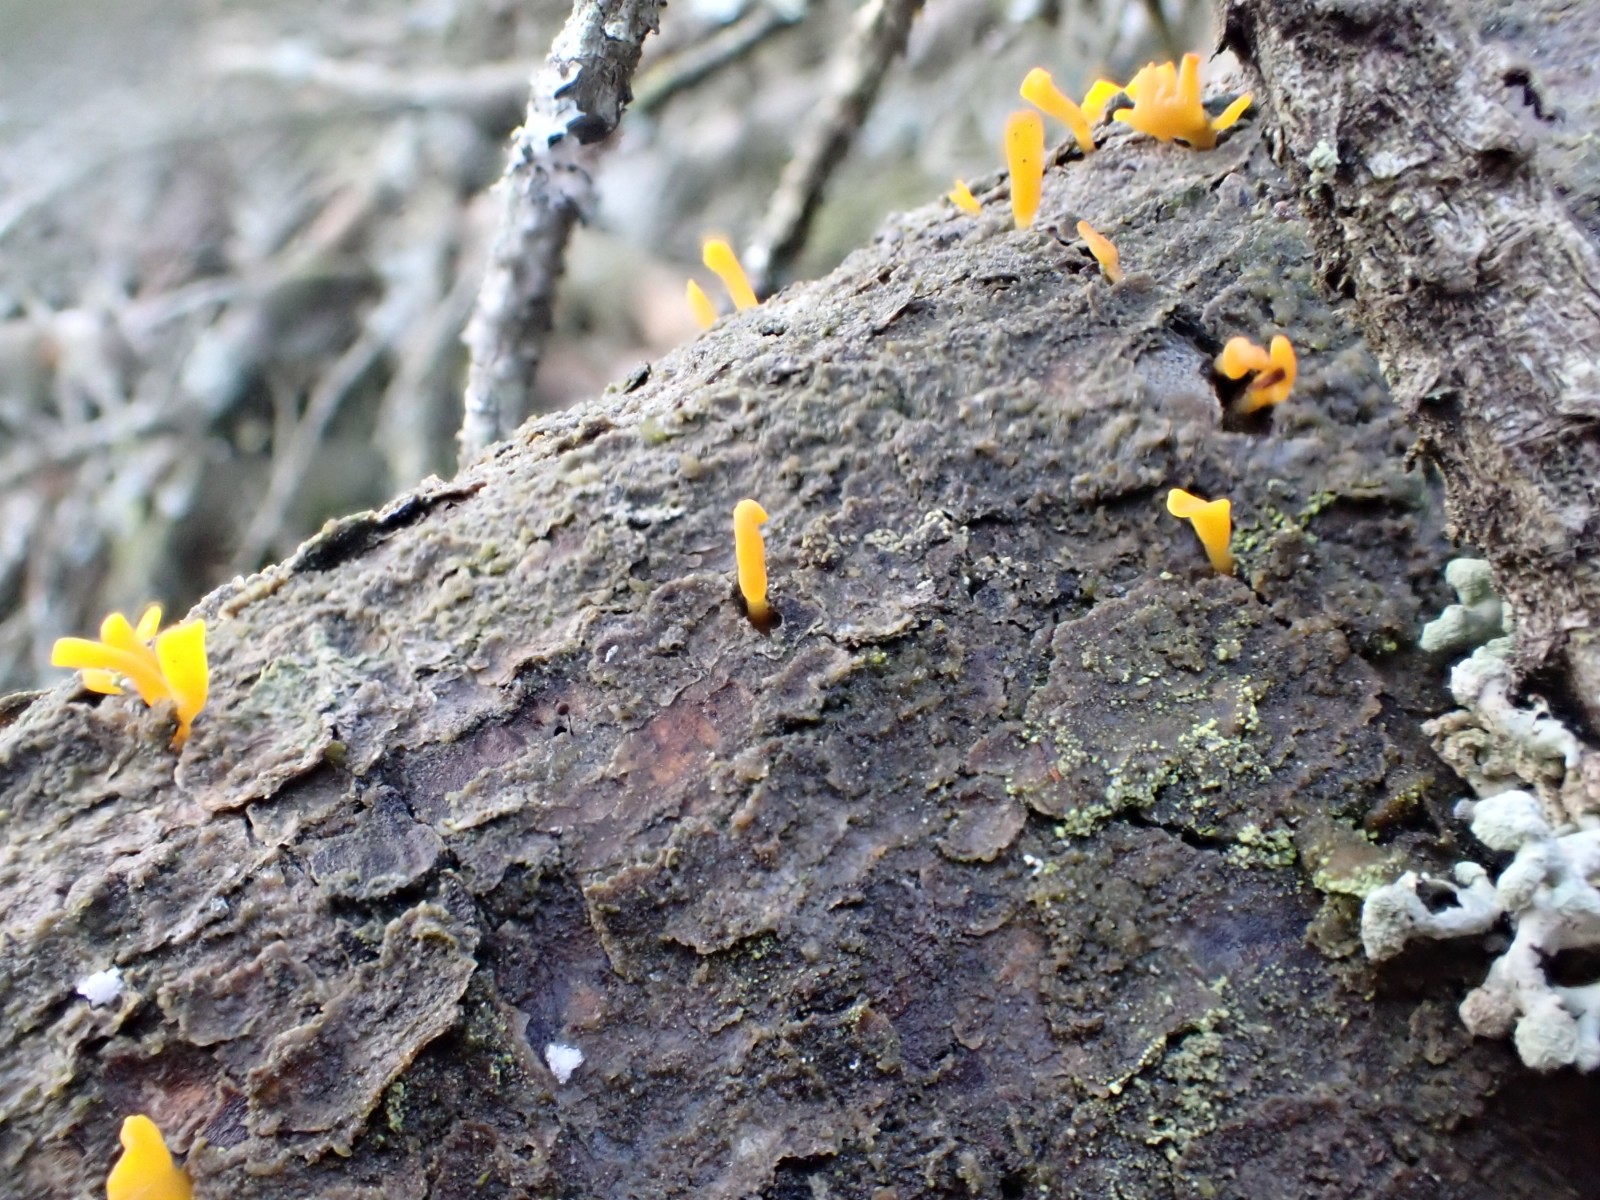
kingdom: Fungi
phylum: Basidiomycota
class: Dacrymycetes
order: Dacrymycetales
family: Dacrymycetaceae
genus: Calocera
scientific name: Calocera furcata
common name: fyrre-guldgaffel
